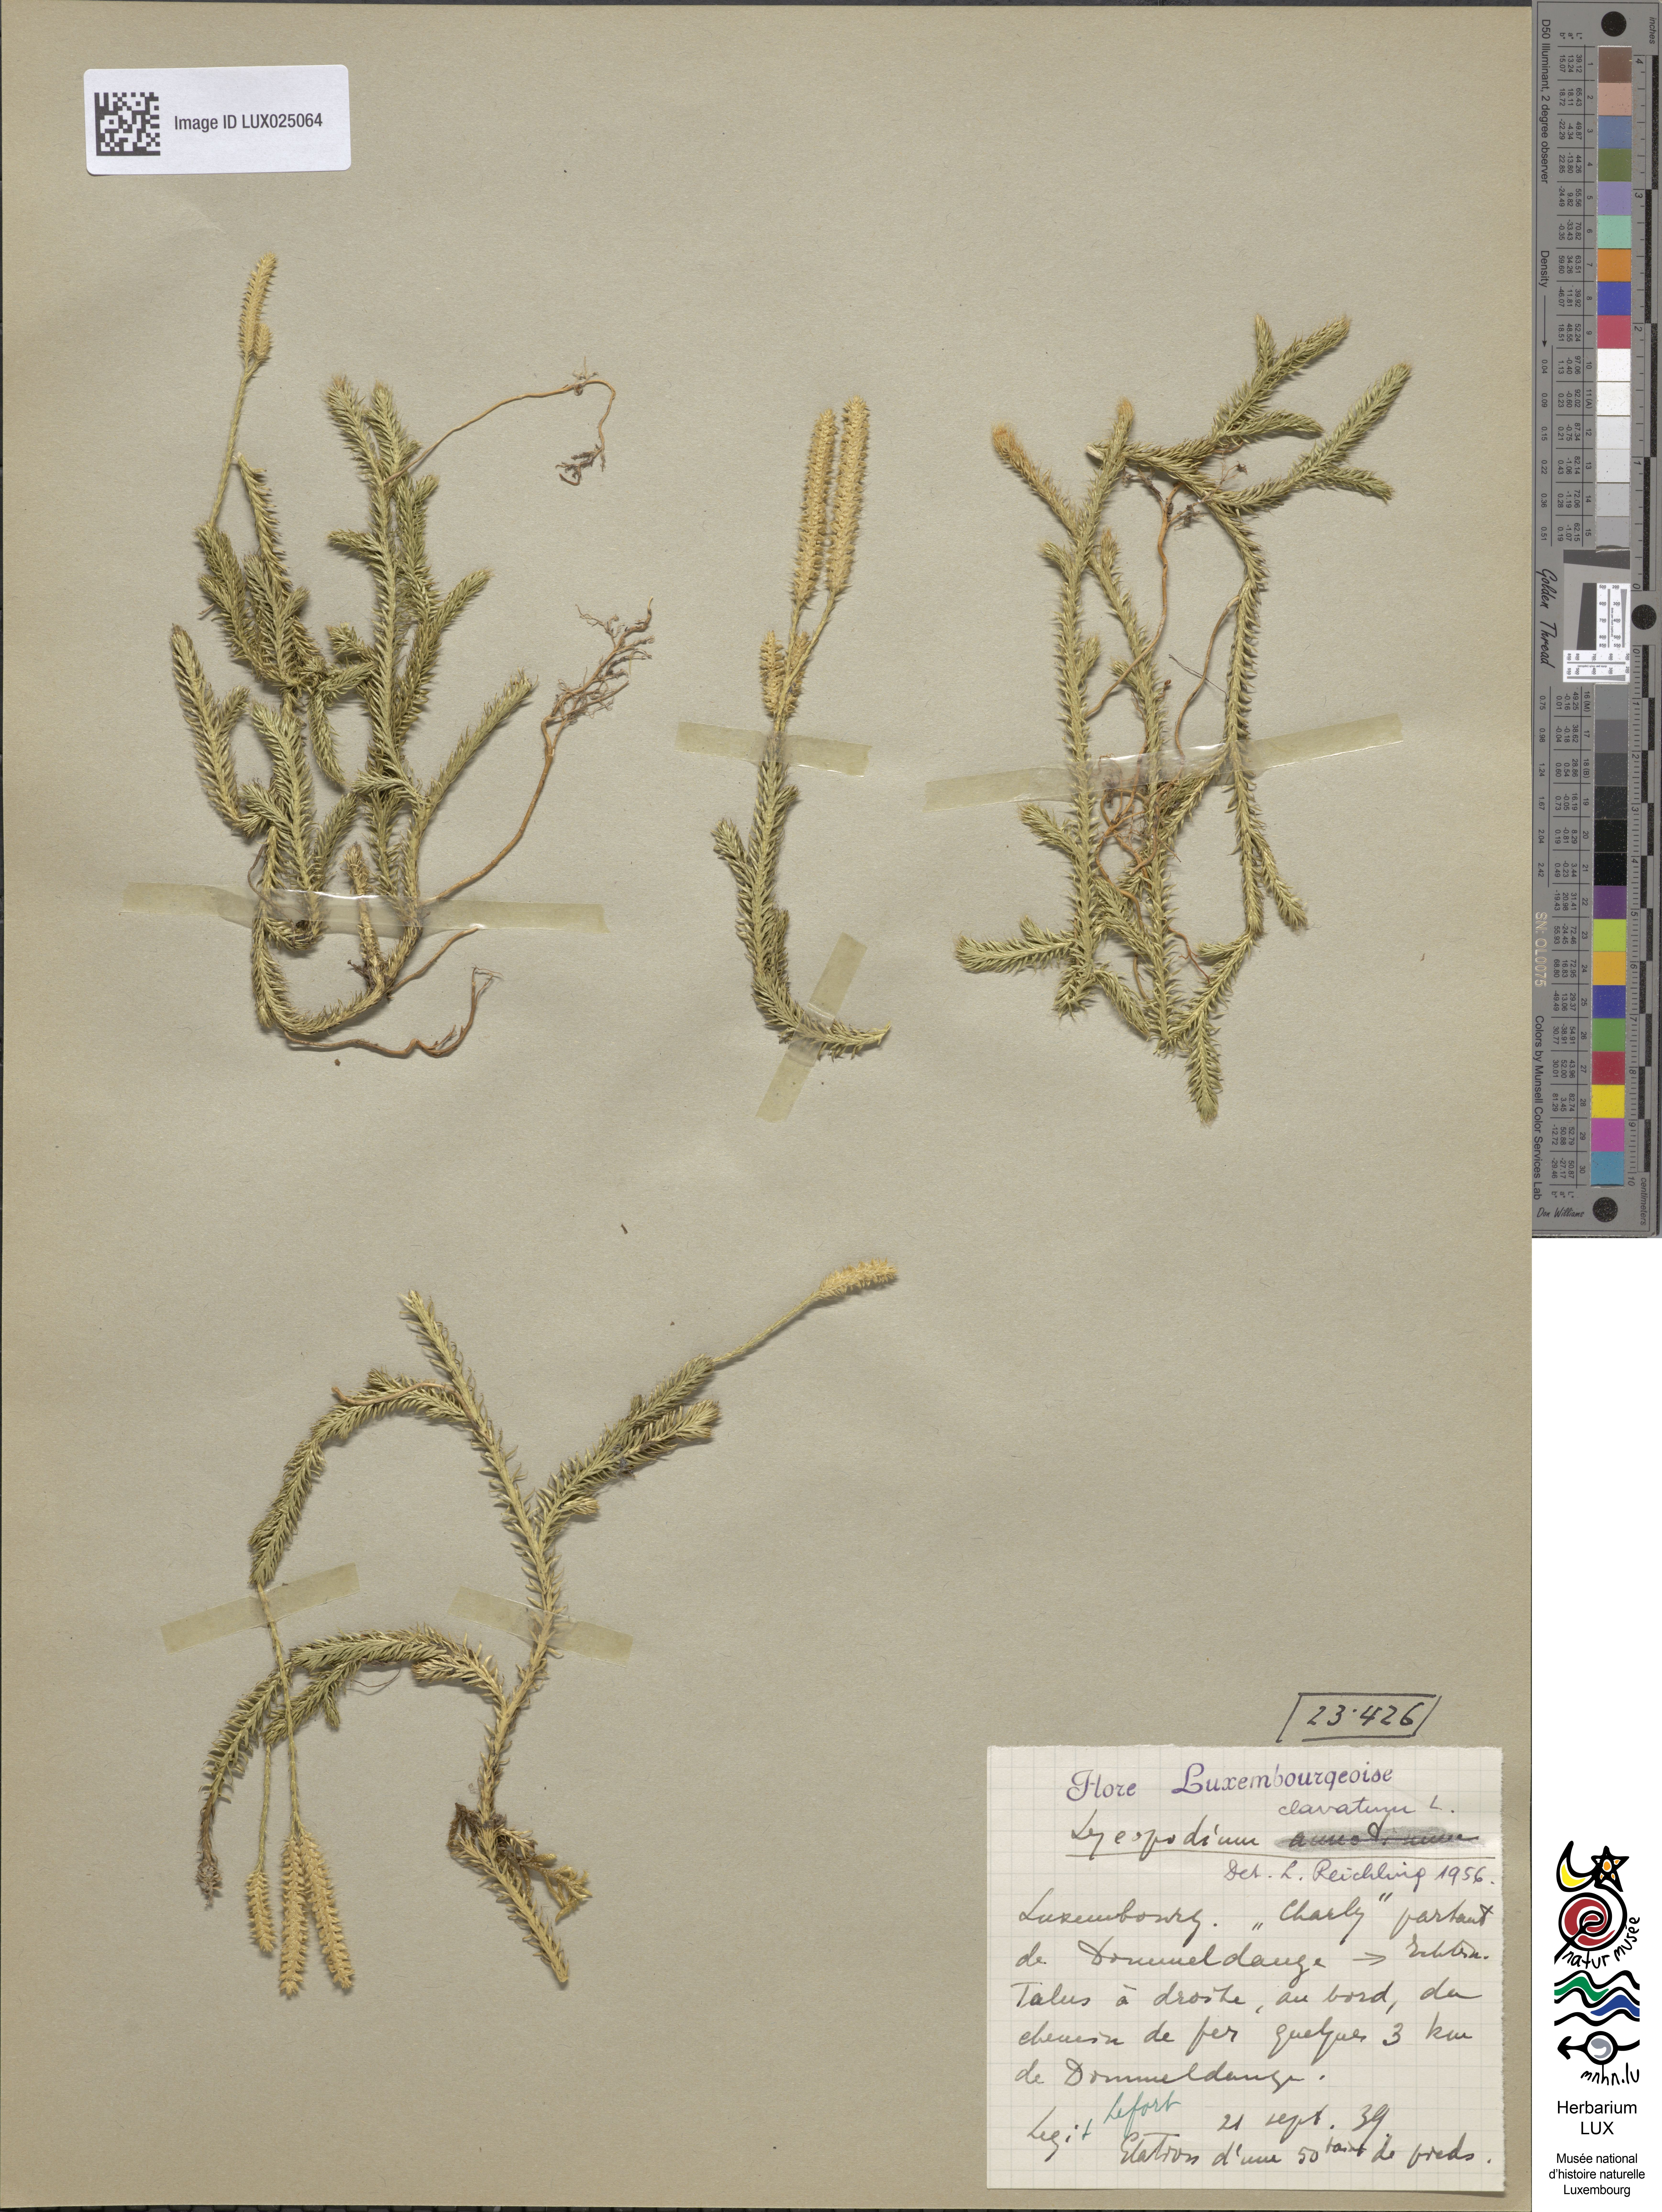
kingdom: Plantae
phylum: Tracheophyta
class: Lycopodiopsida
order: Lycopodiales
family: Lycopodiaceae
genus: Lycopodium
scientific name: Lycopodium clavatum
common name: Stag's-horn clubmoss
